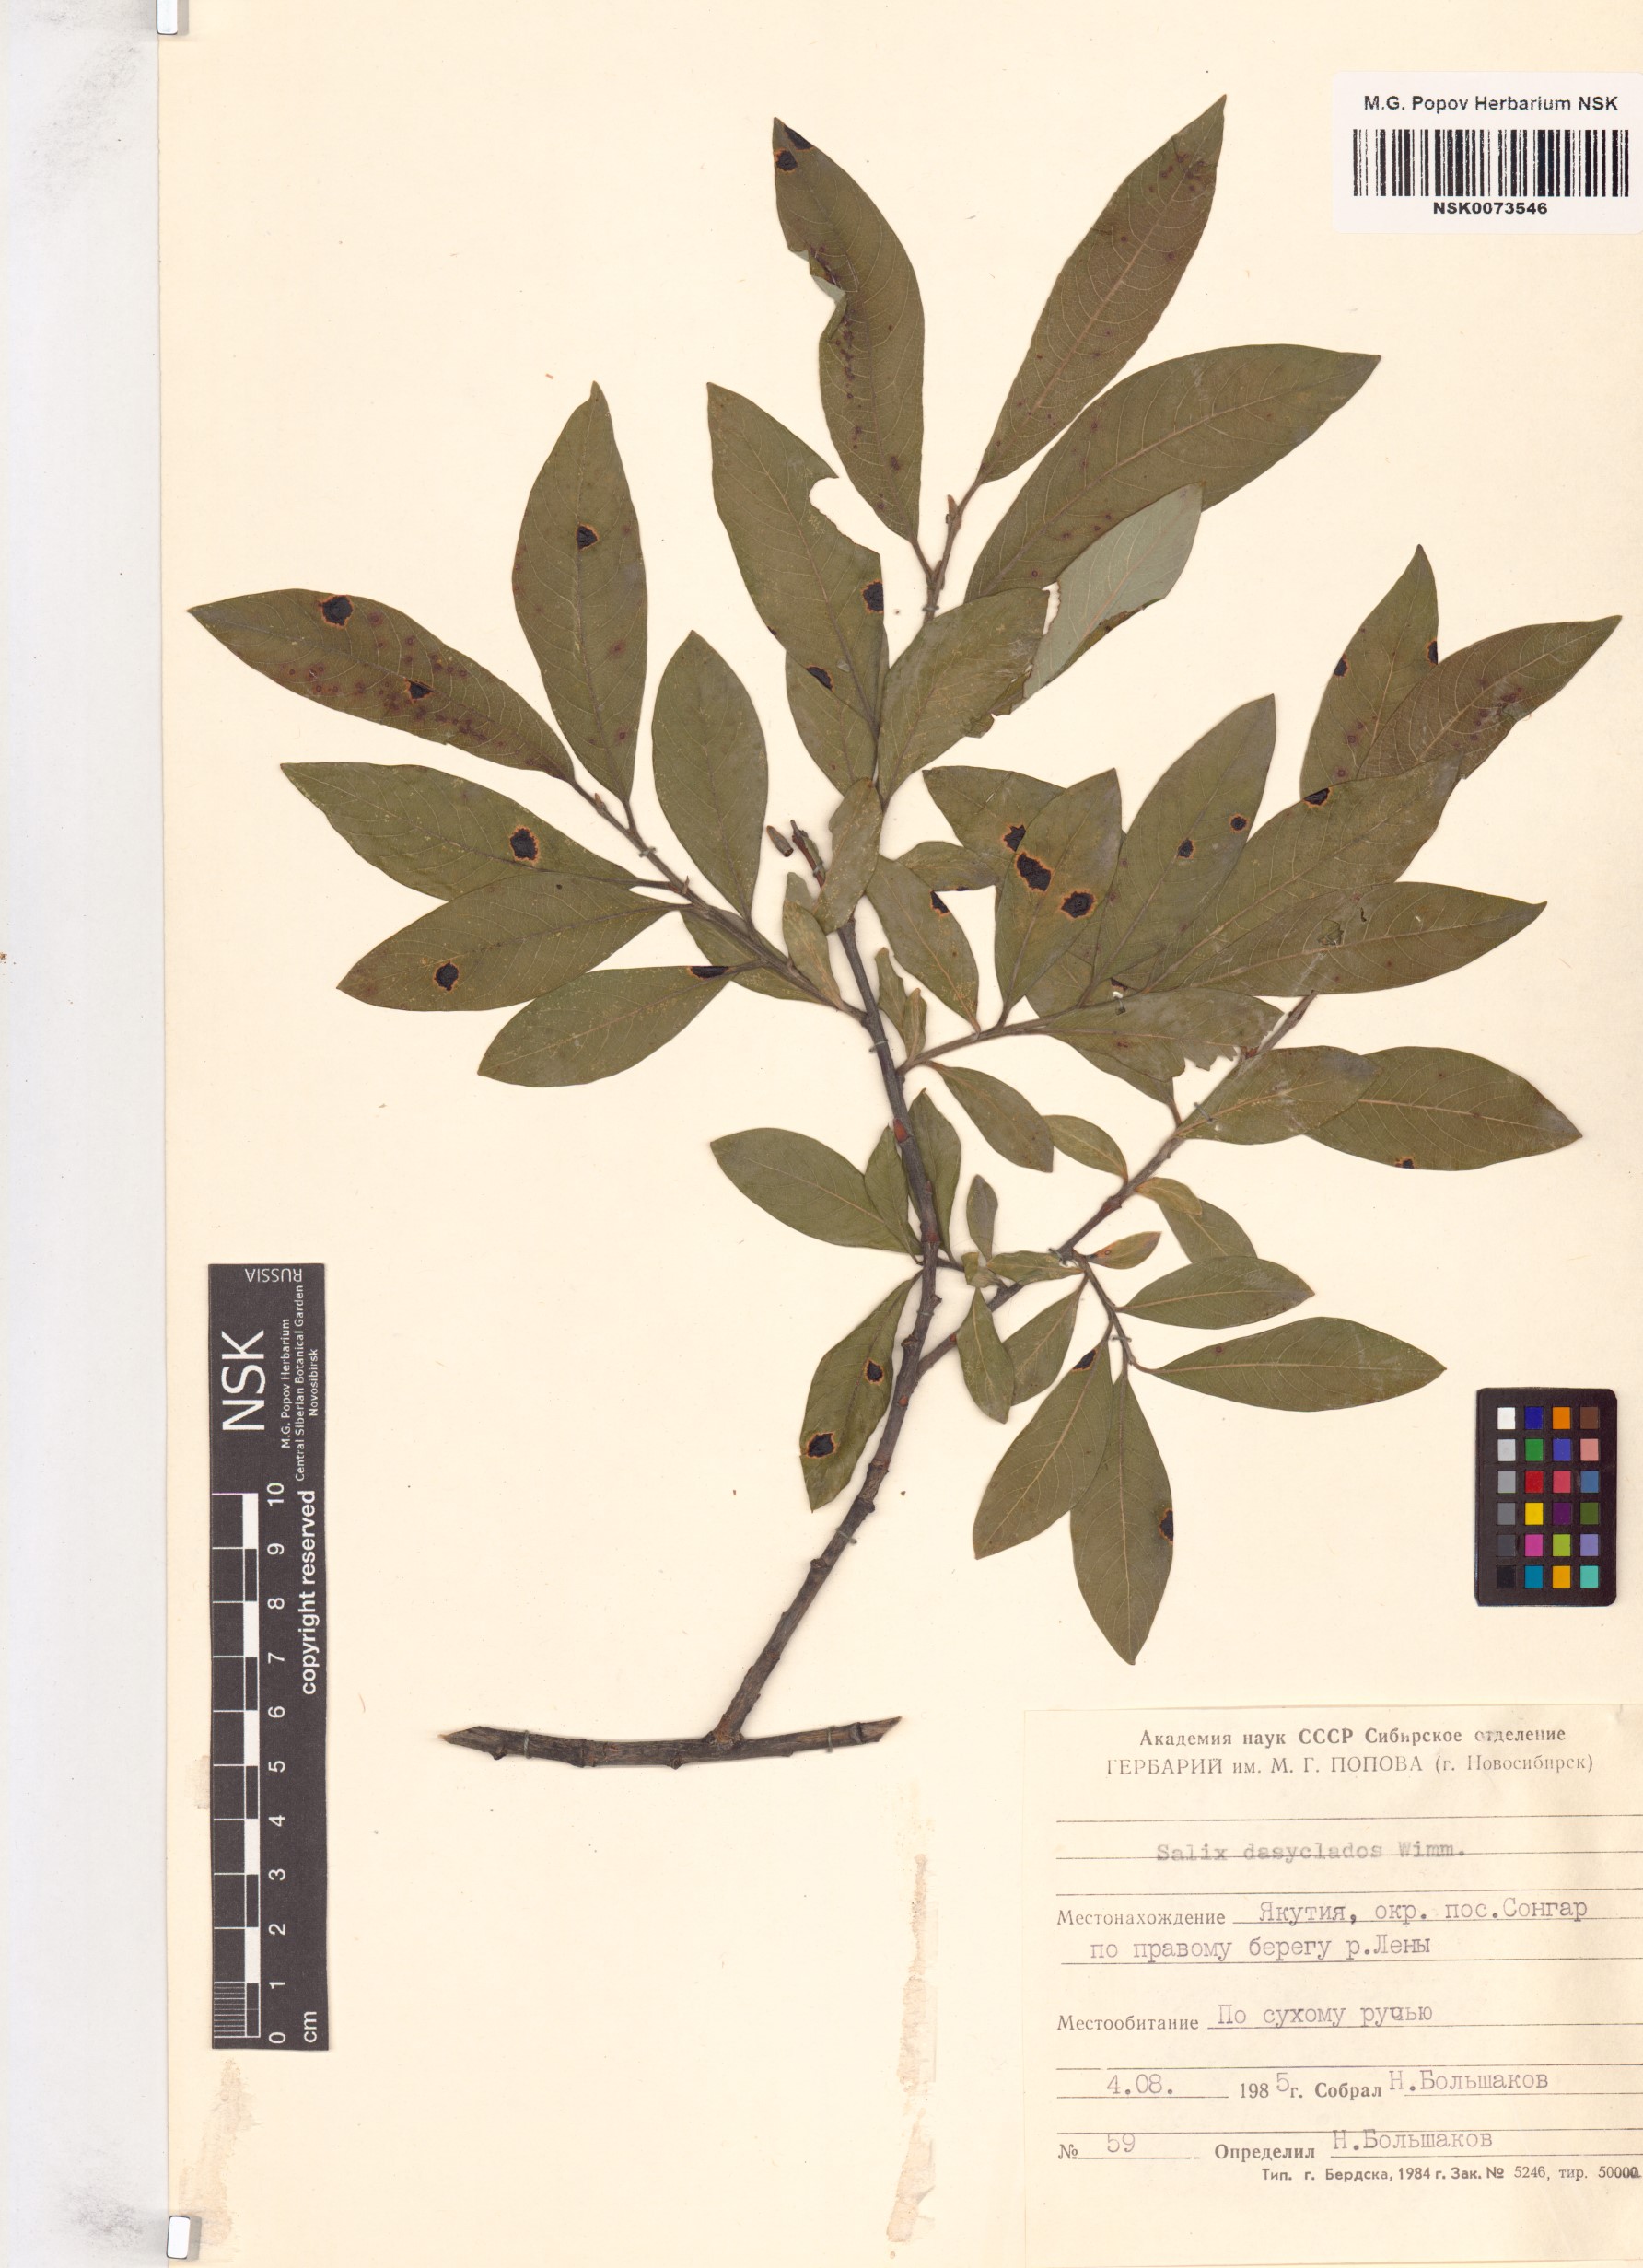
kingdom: Plantae
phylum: Tracheophyta
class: Magnoliopsida
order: Malpighiales
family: Salicaceae
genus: Salix
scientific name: Salix gmelinii
